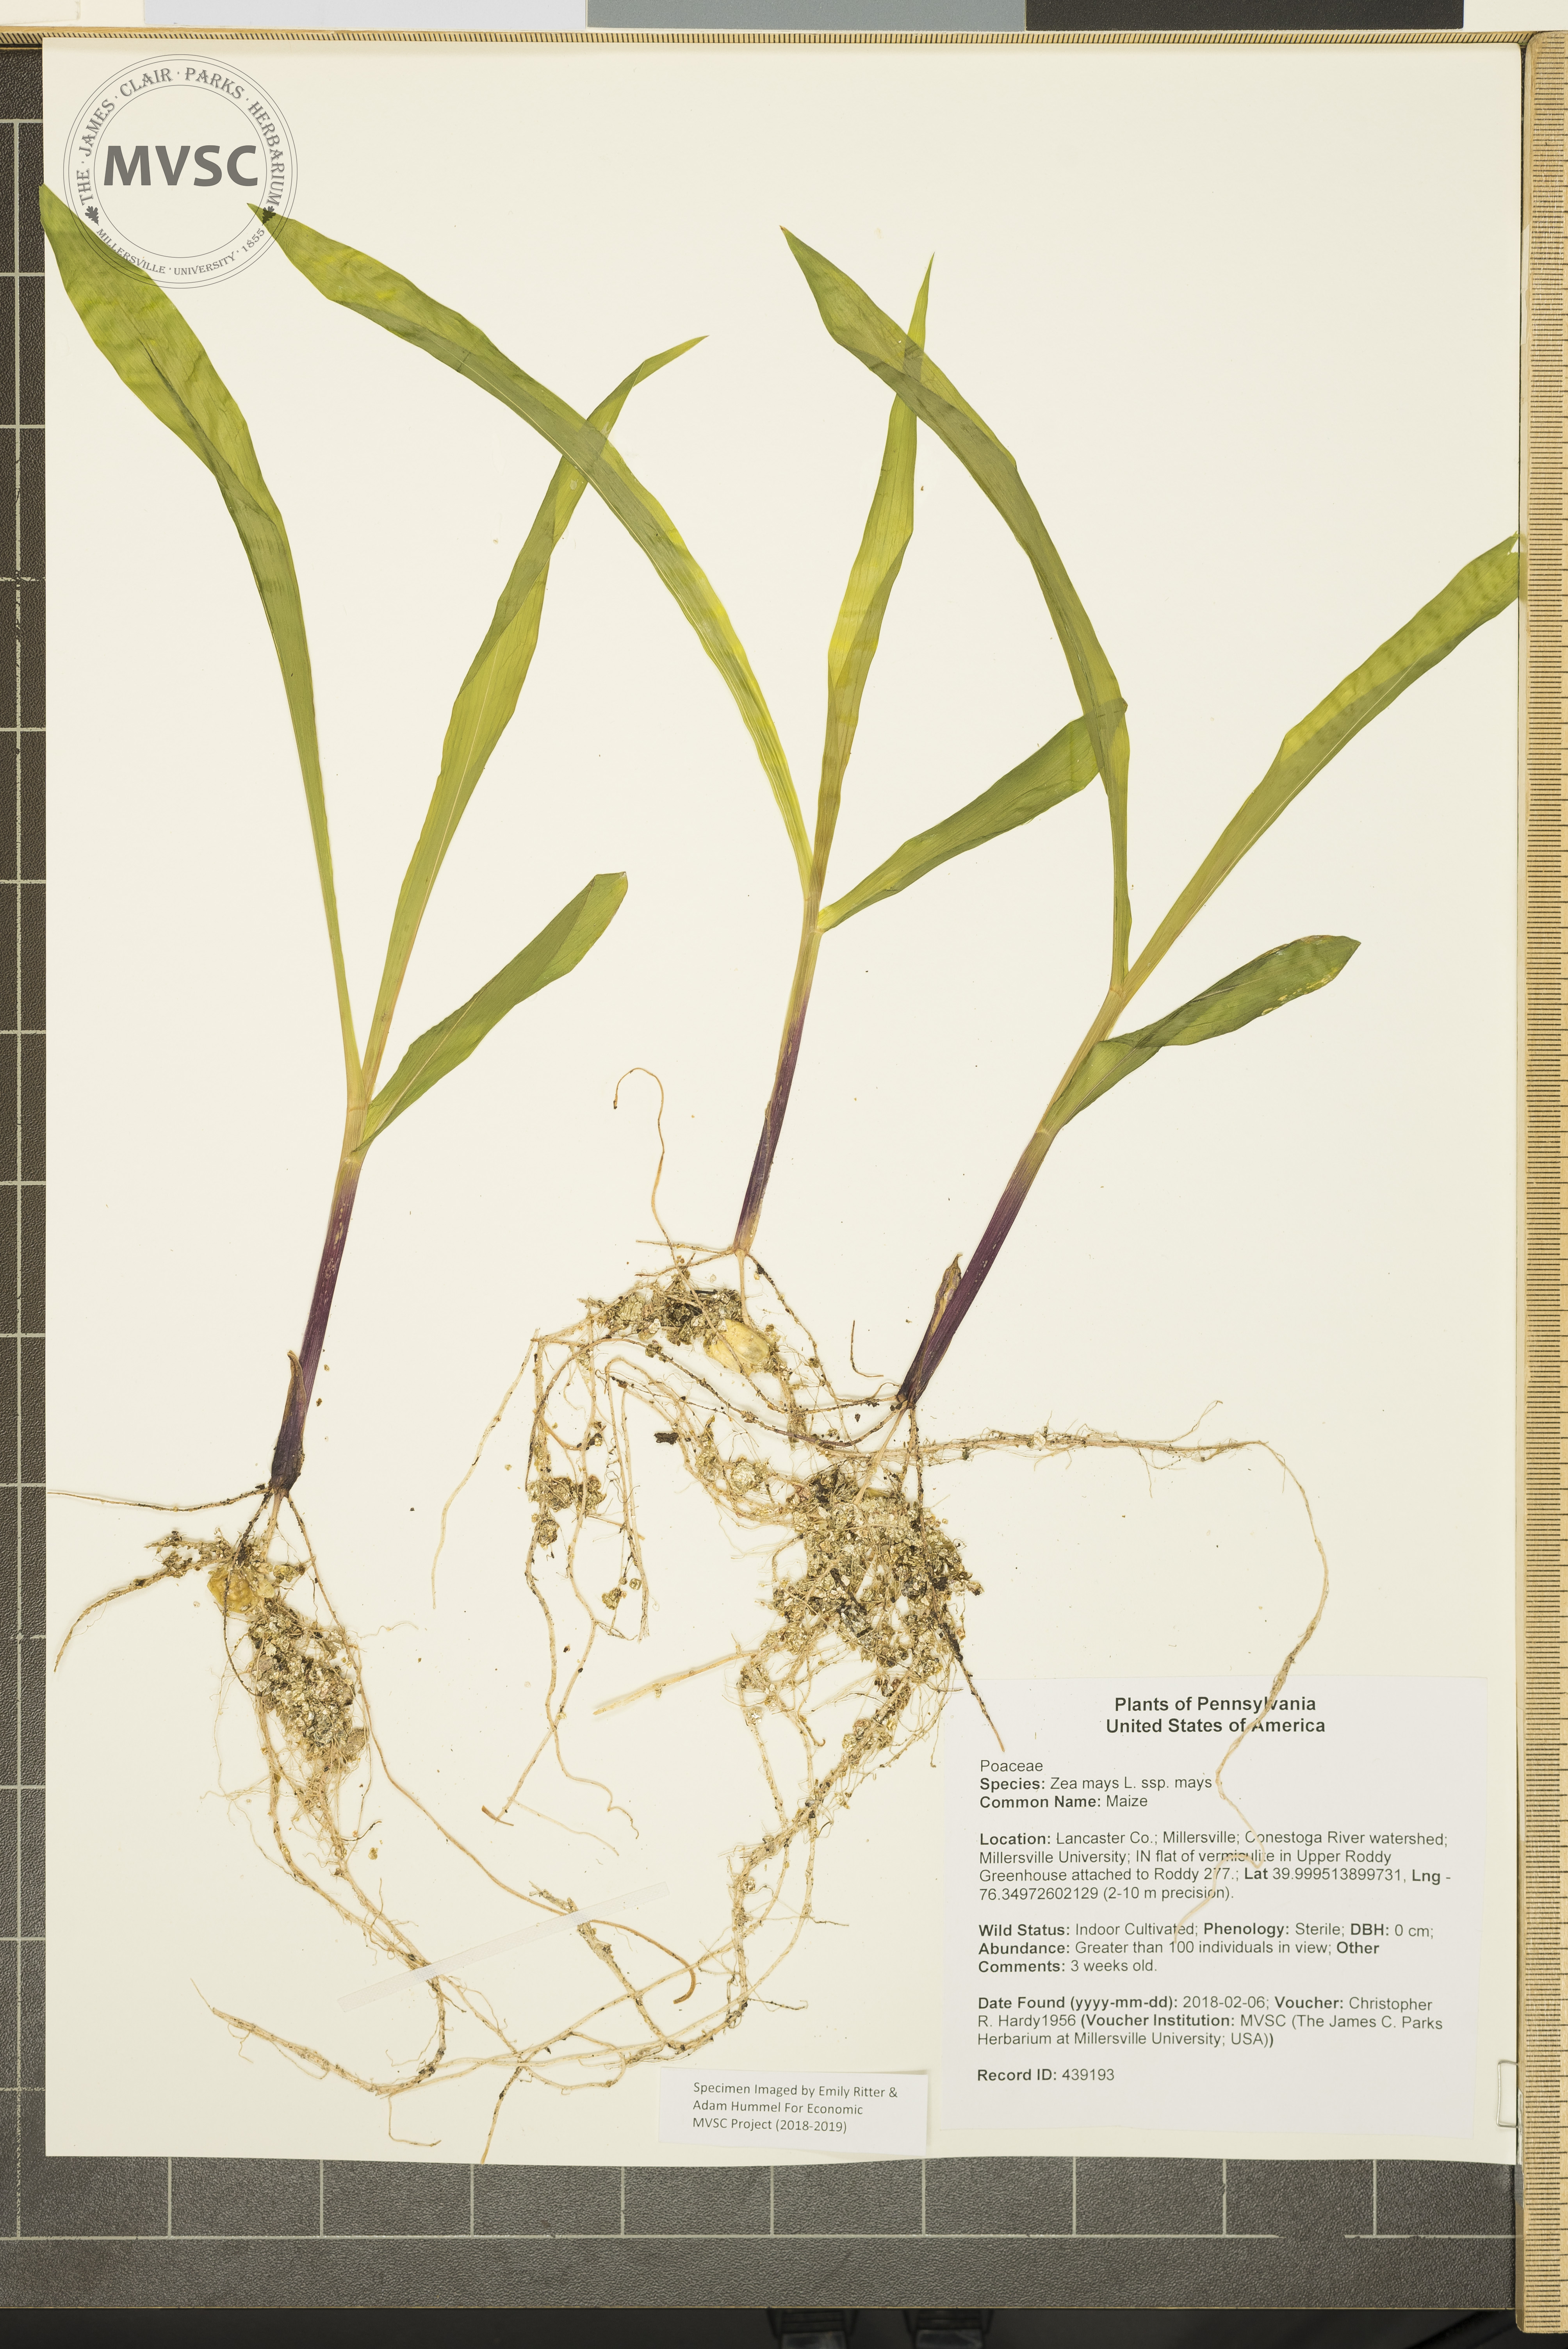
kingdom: Plantae
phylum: Tracheophyta
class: Liliopsida
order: Poales
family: Poaceae
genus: Zea
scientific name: Zea mays
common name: Maize
